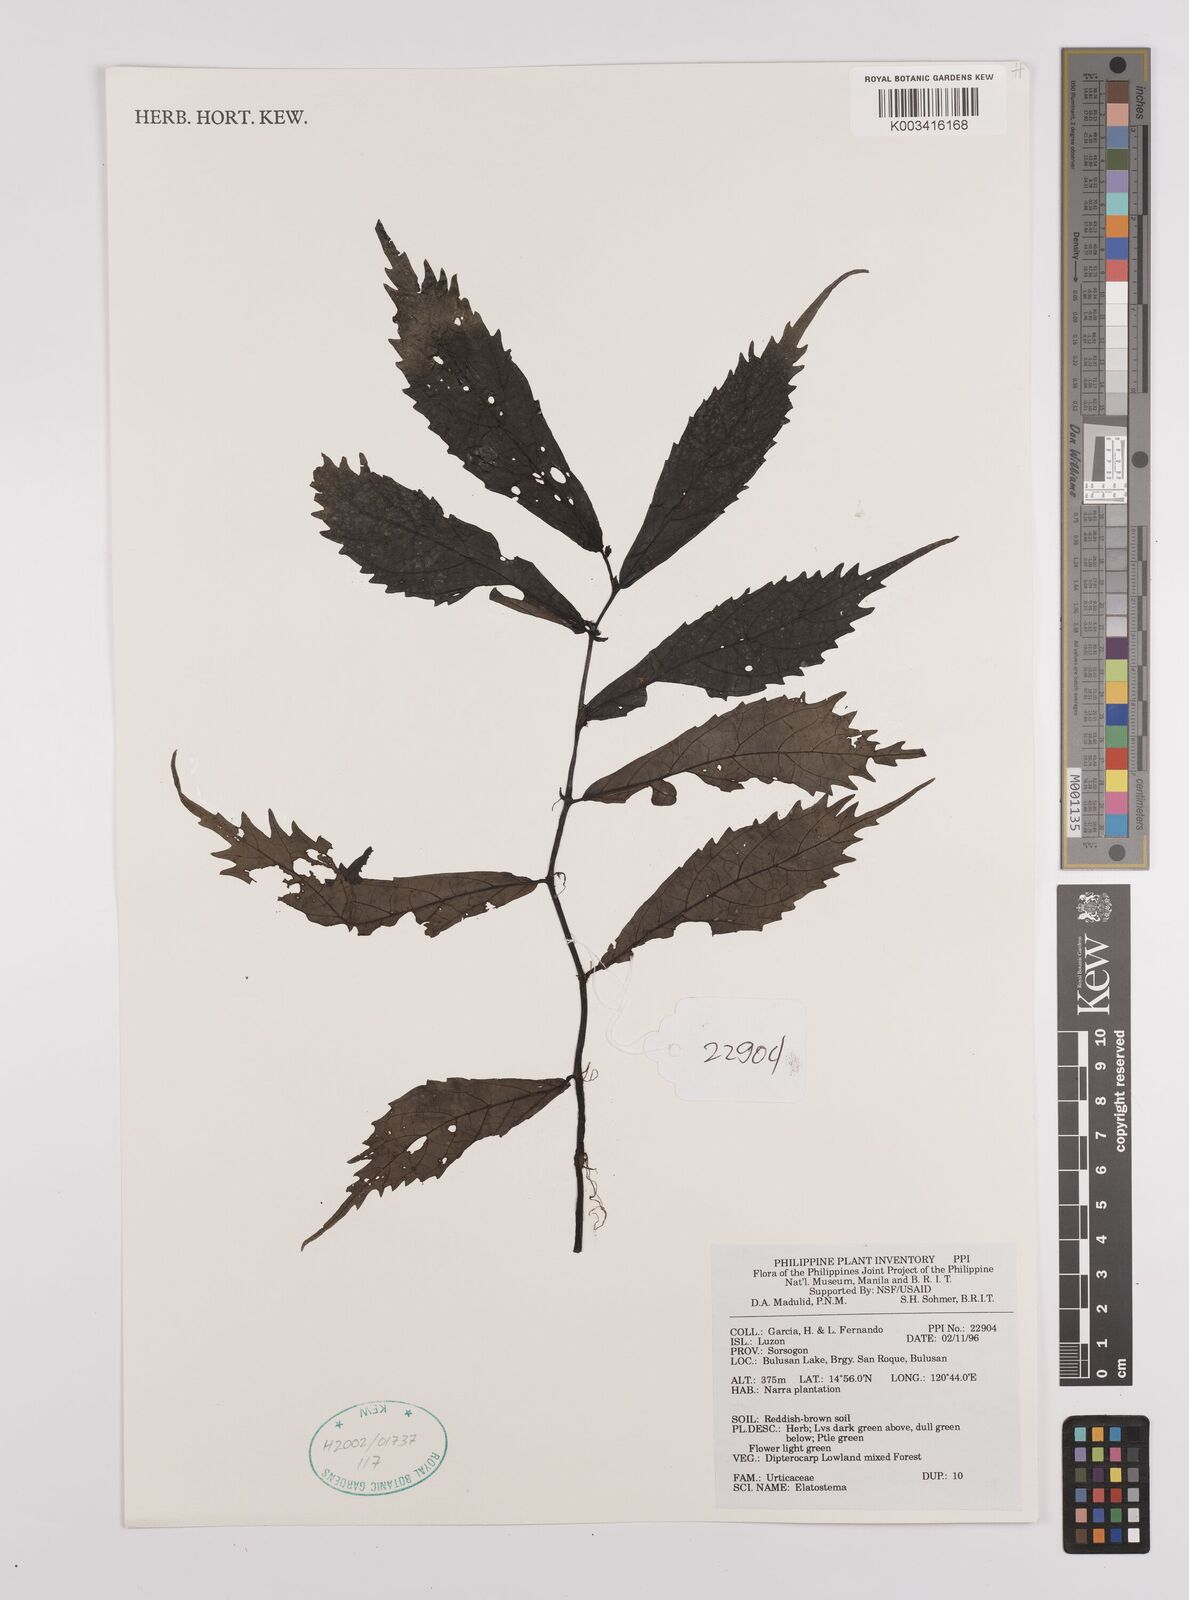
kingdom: Plantae
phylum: Tracheophyta
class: Magnoliopsida
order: Rosales
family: Urticaceae
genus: Elatostema
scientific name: Elatostema
